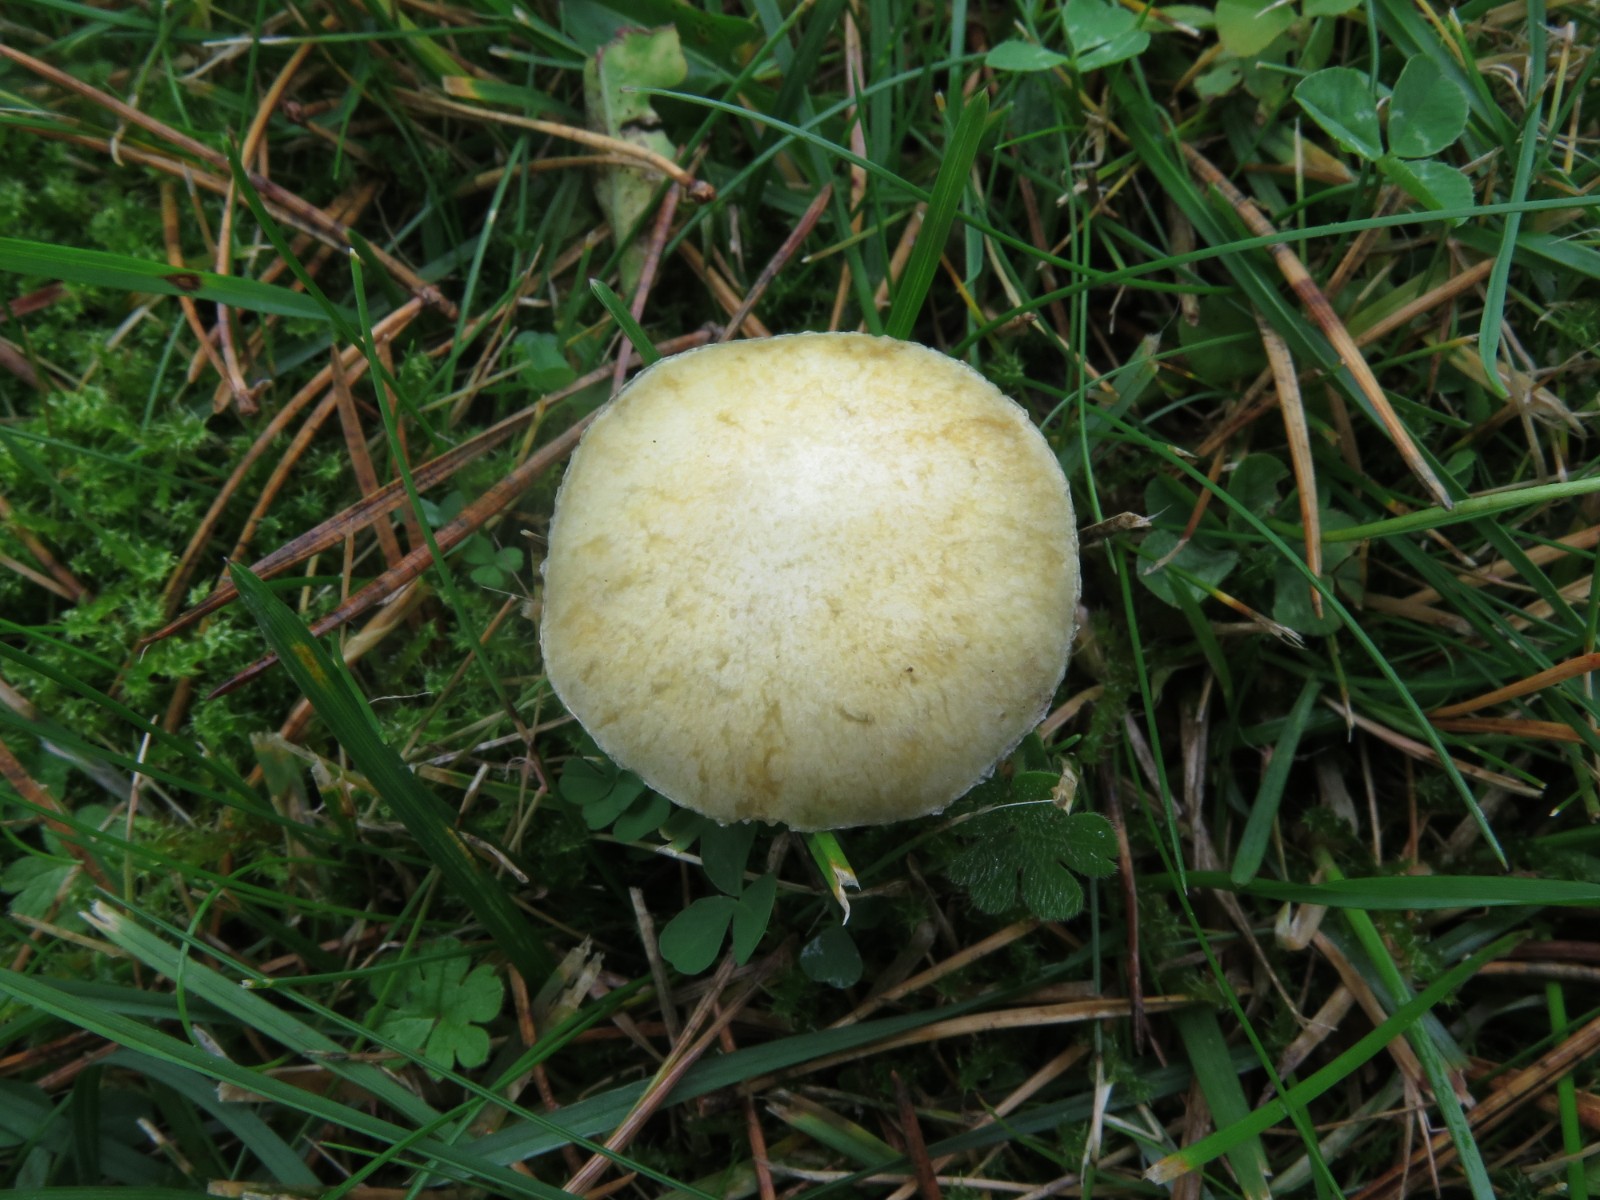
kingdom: Fungi
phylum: Basidiomycota
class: Agaricomycetes
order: Agaricales
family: Hymenogastraceae
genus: Psilocybe
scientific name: Psilocybe coronilla
